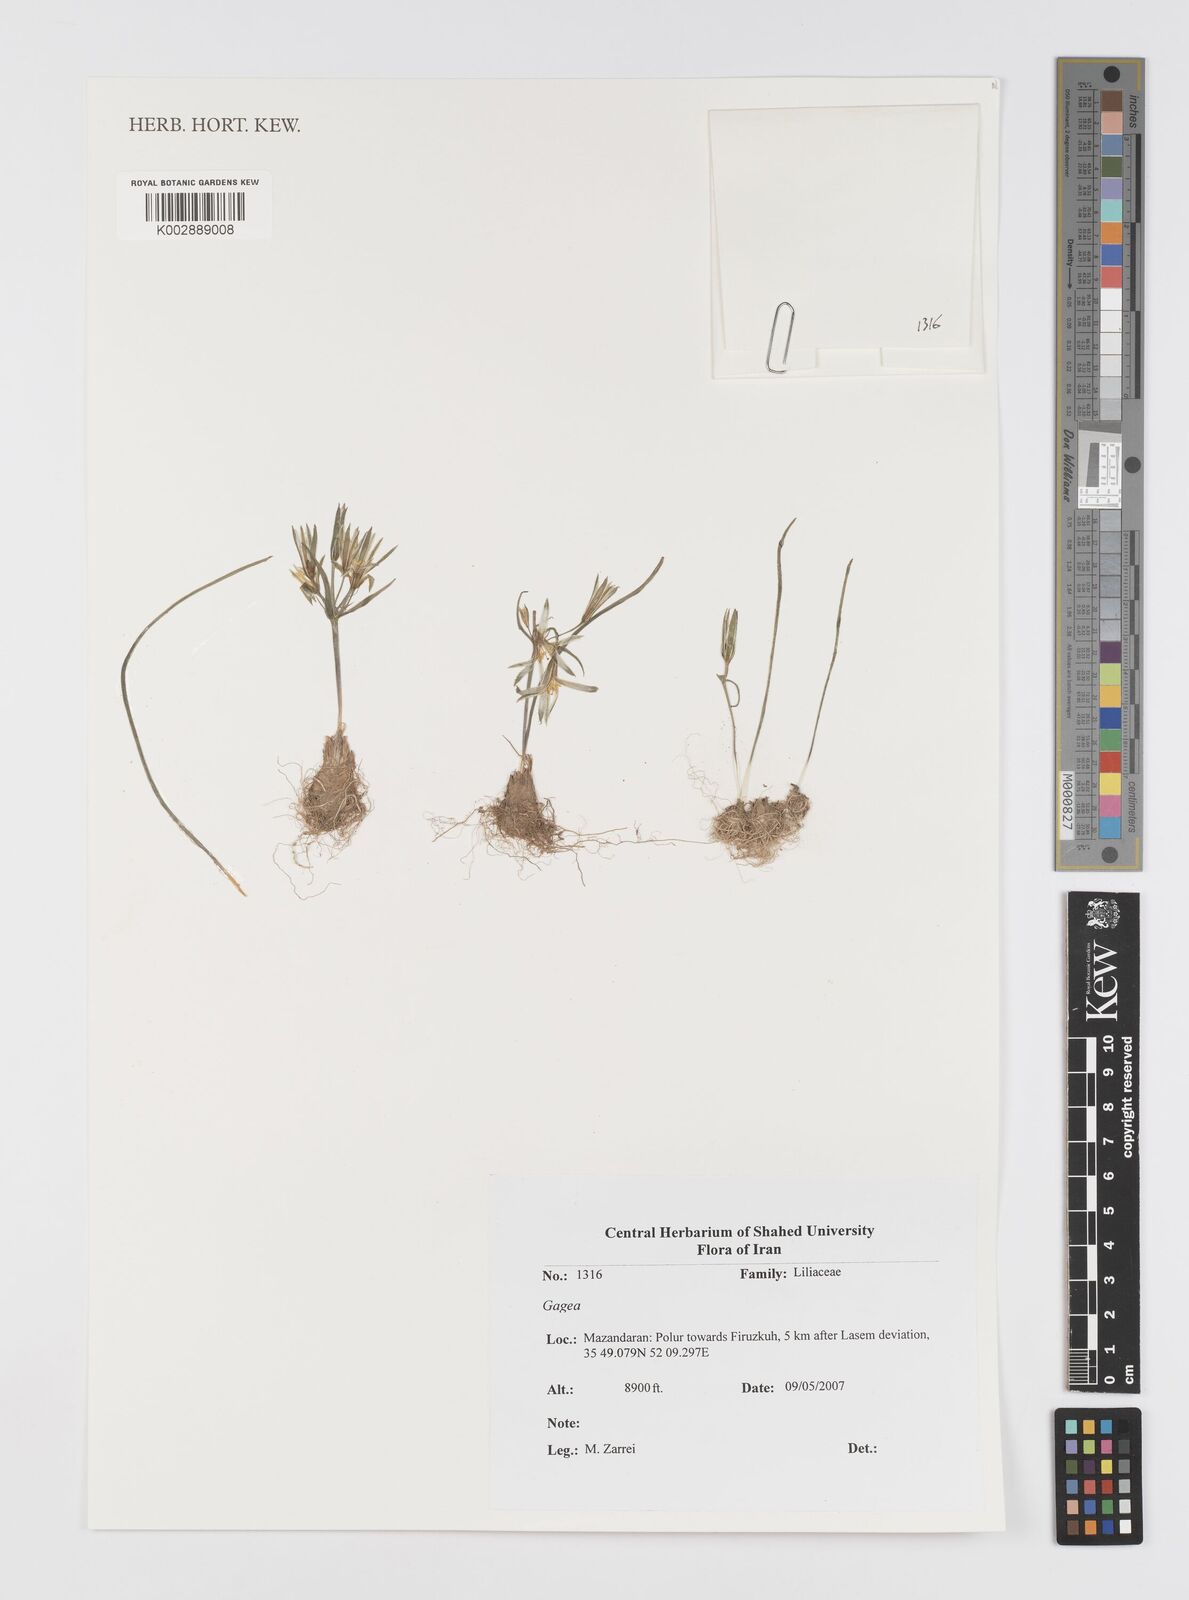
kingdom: Plantae
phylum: Tracheophyta
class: Liliopsida
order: Liliales
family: Liliaceae
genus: Gagea
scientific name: Gagea
